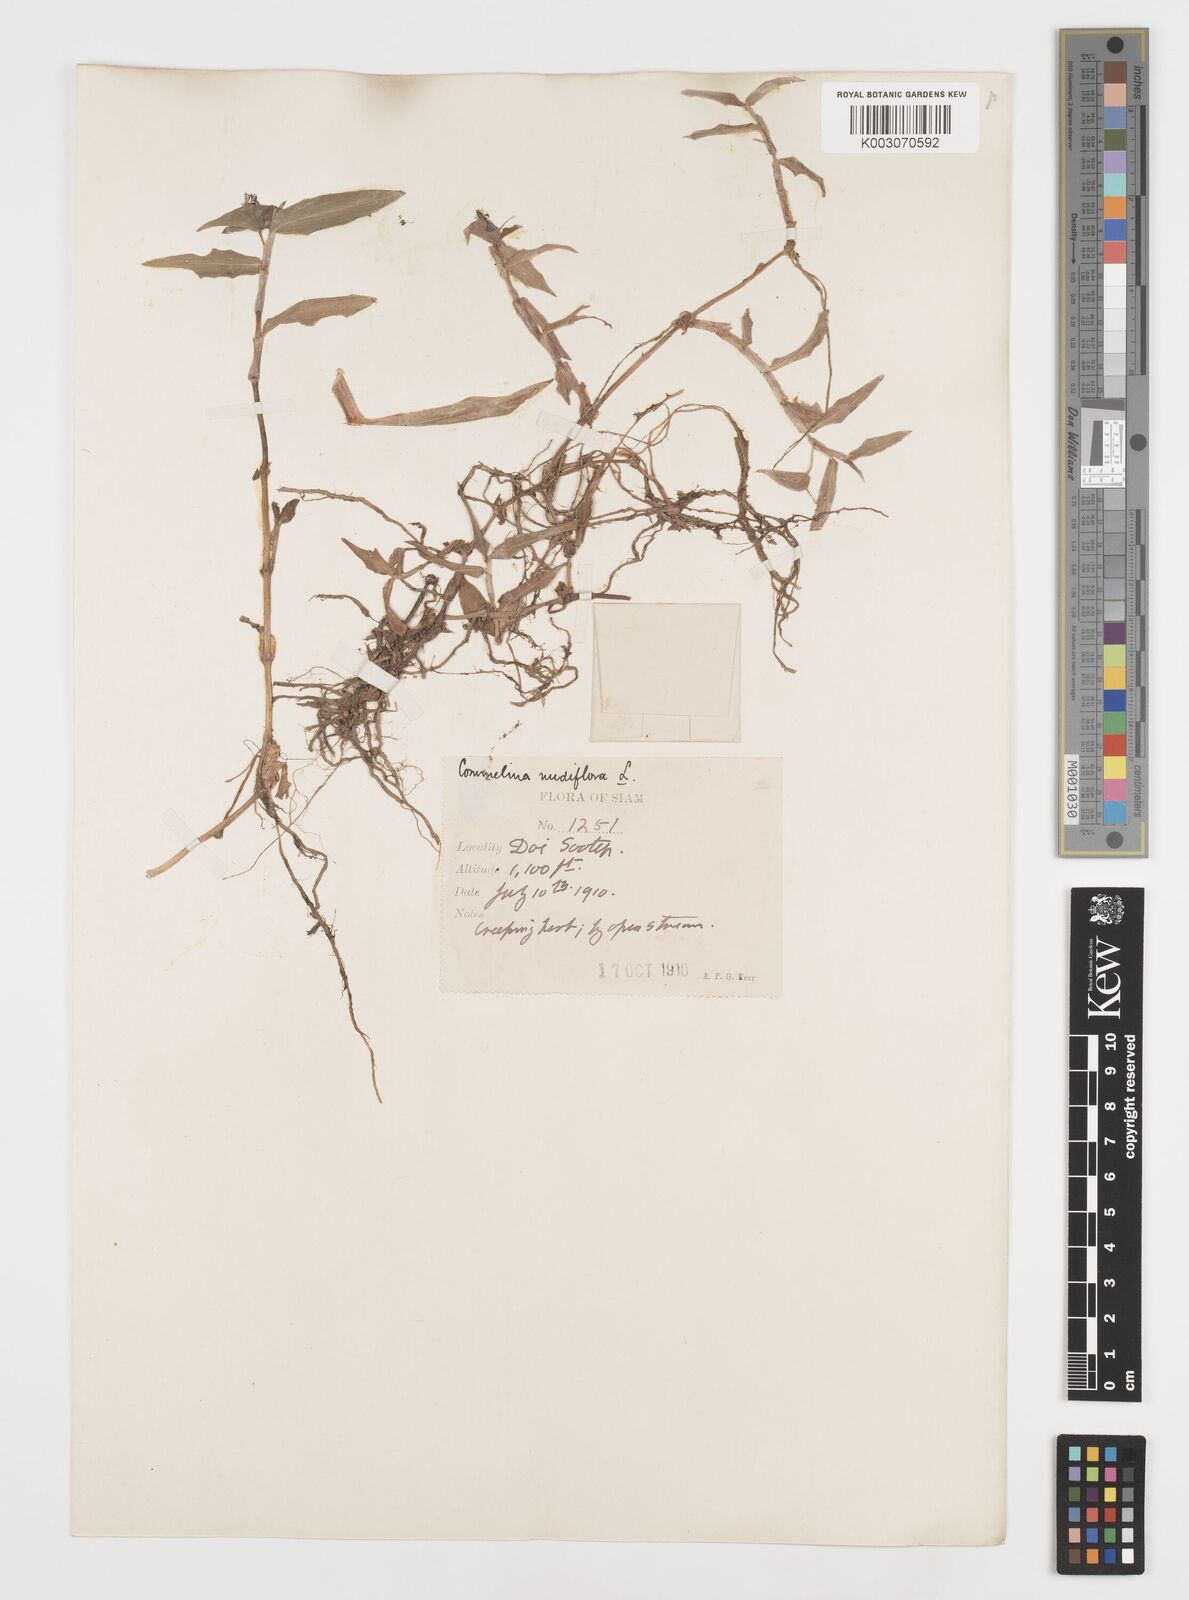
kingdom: Plantae
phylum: Tracheophyta
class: Liliopsida
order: Commelinales
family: Commelinaceae
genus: Commelina
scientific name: Commelina clavata
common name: Willow leaved dayflower
